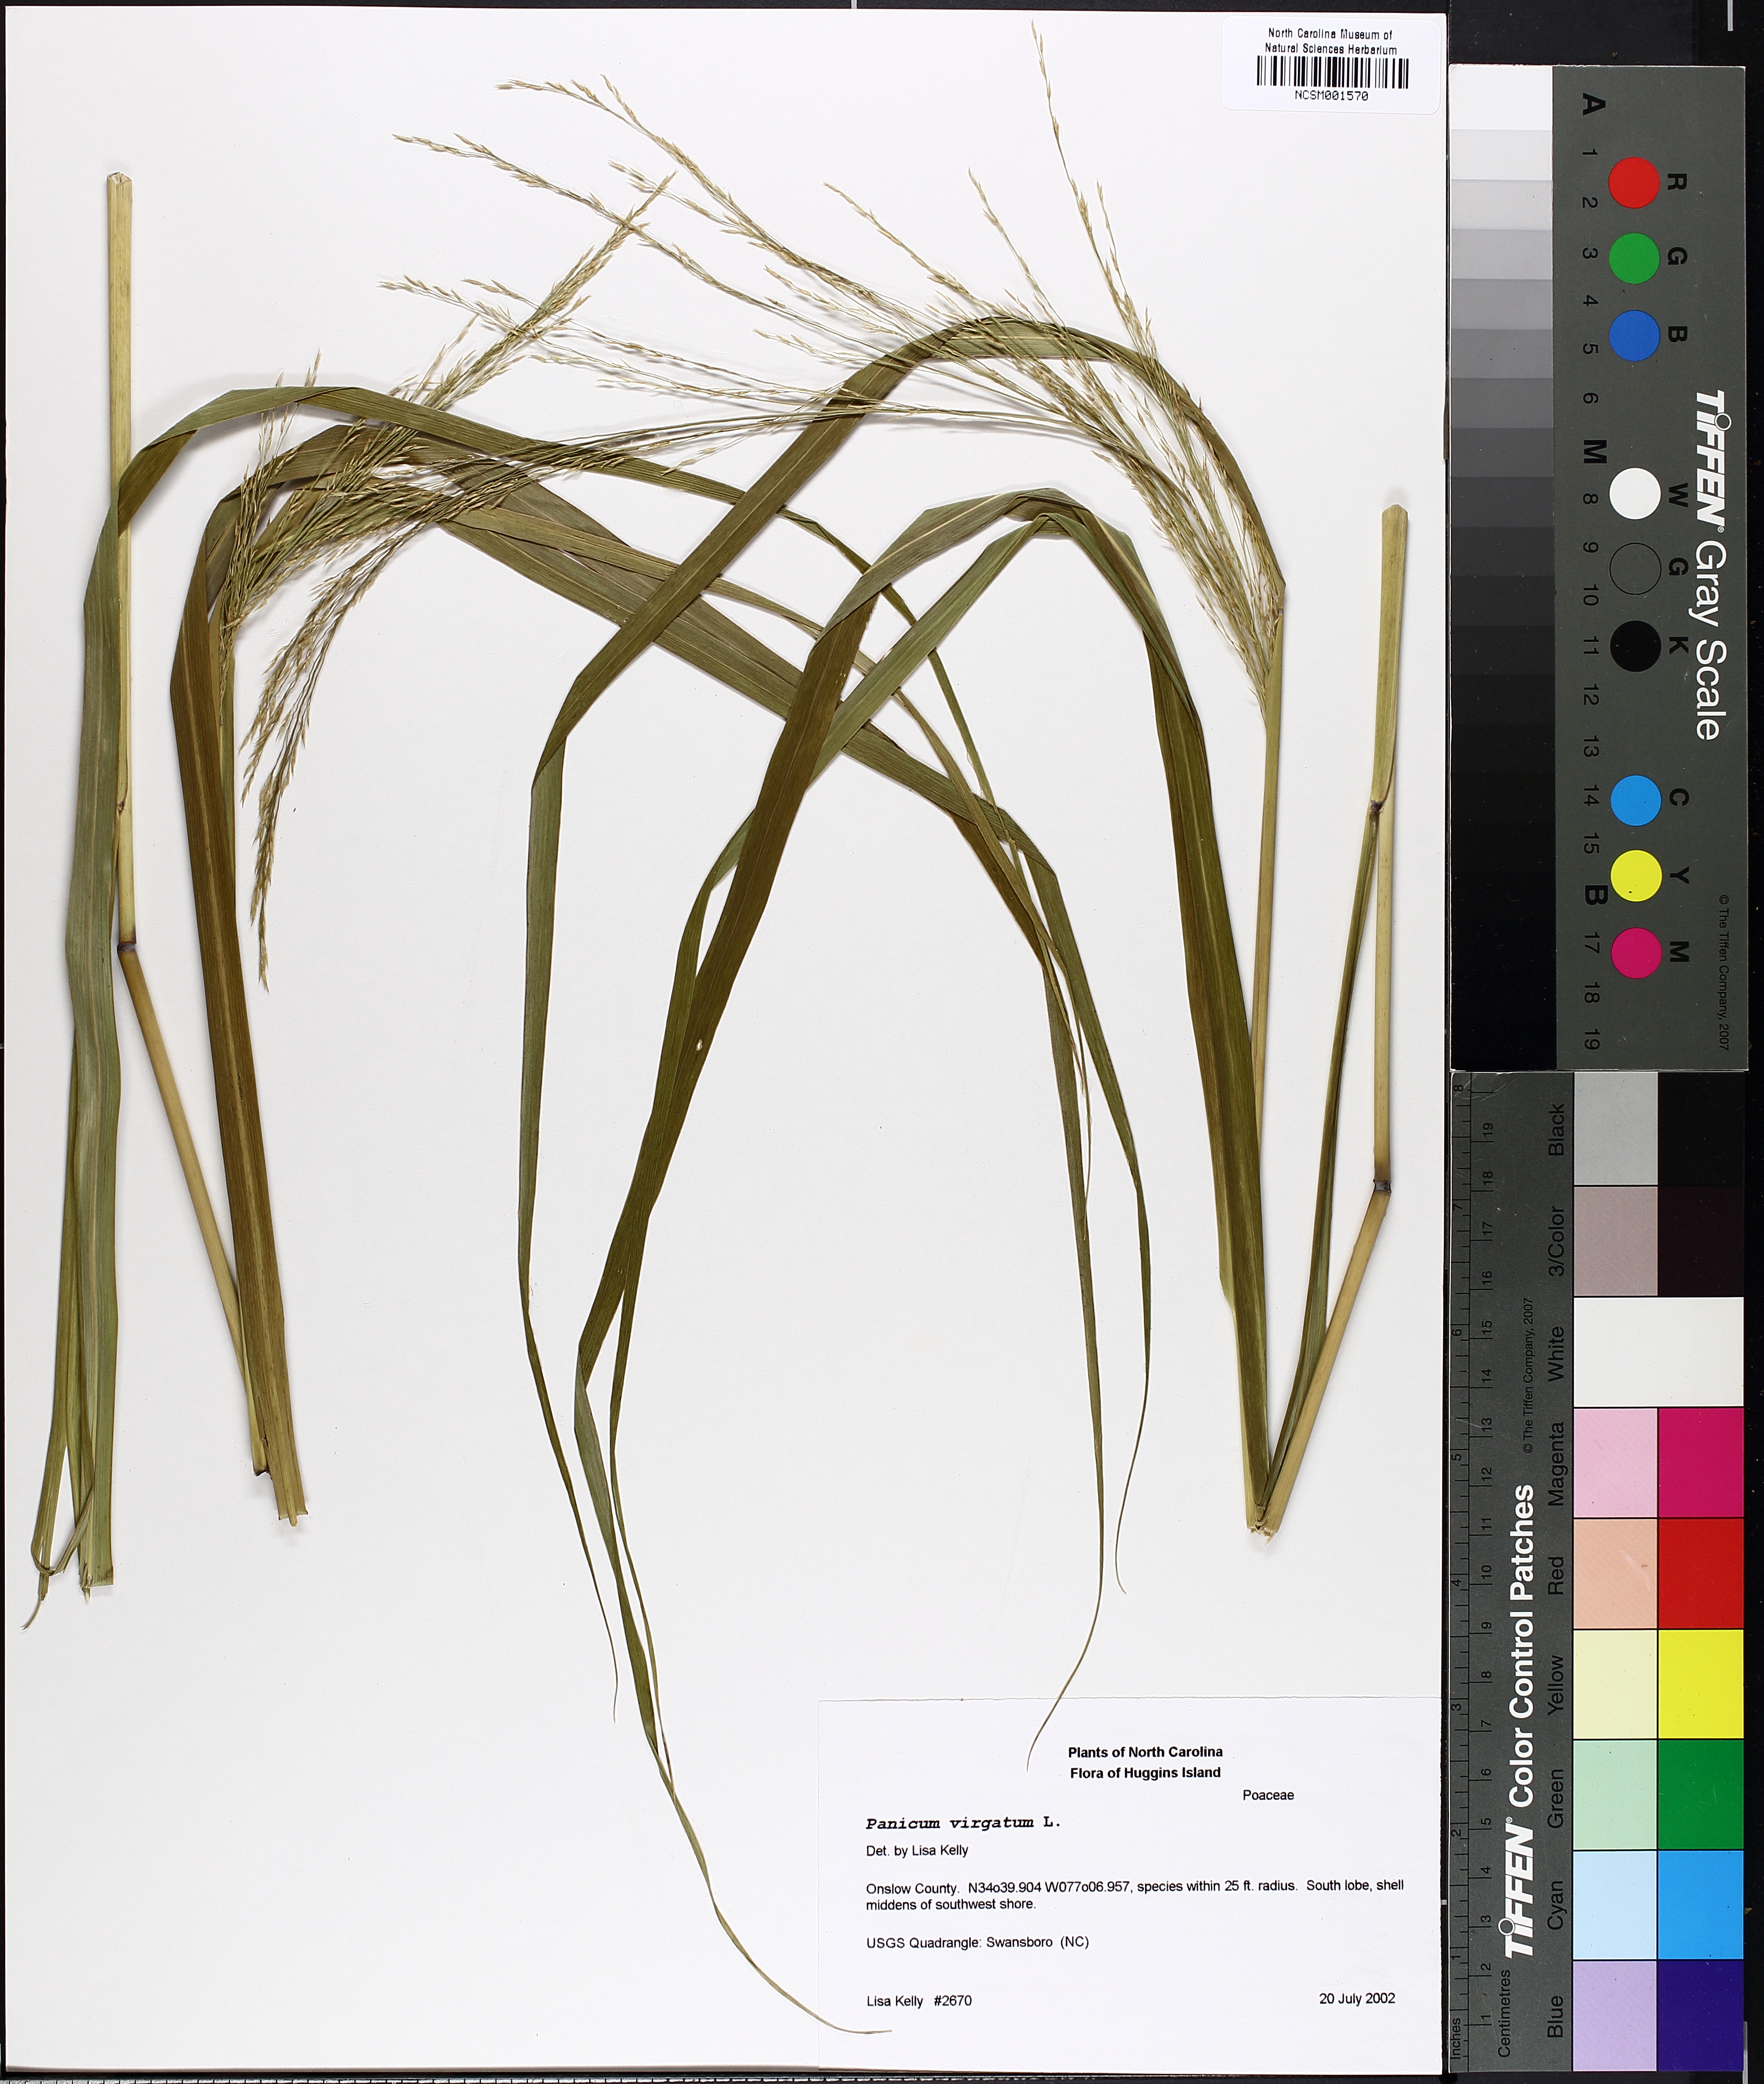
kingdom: Plantae
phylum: Tracheophyta
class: Liliopsida
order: Poales
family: Poaceae
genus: Panicum
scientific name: Panicum virgatum
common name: Switchgrass
